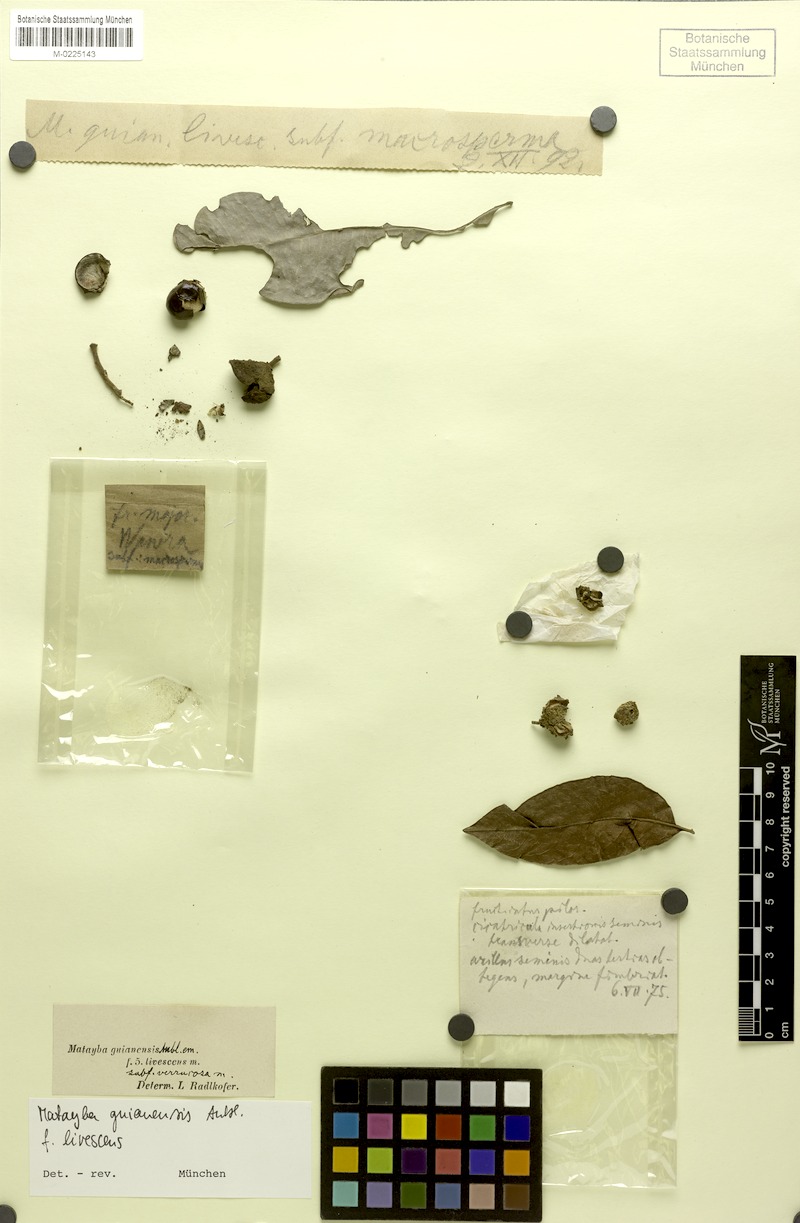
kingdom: Plantae
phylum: Tracheophyta
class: Magnoliopsida
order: Sapindales
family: Sapindaceae
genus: Matayba
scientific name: Matayba guianensis
